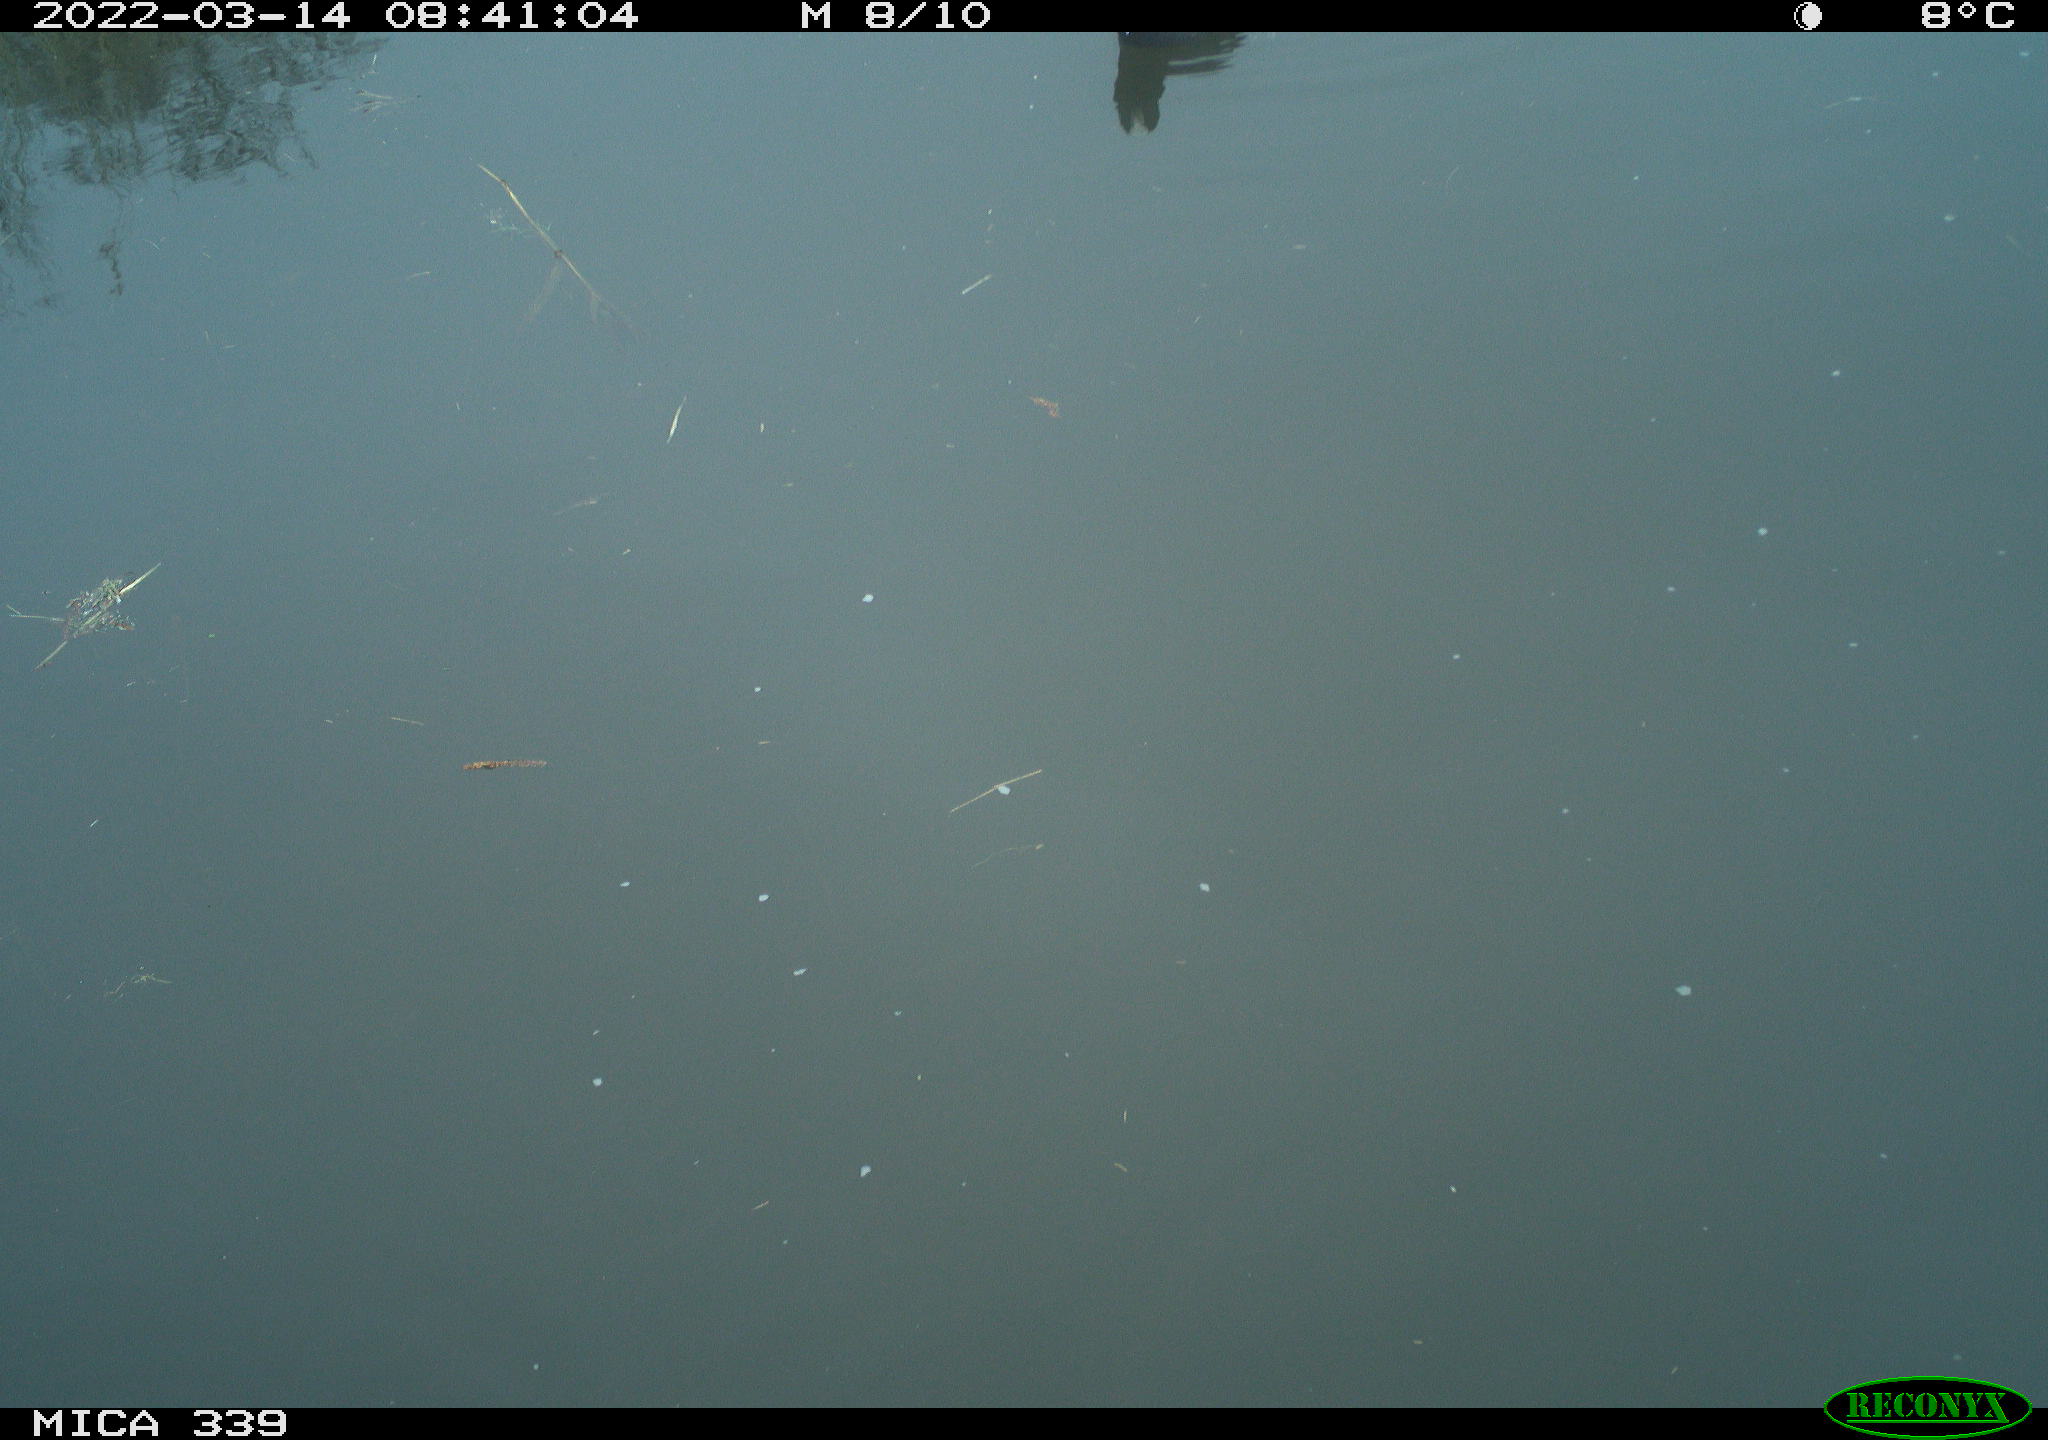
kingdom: Animalia
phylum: Chordata
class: Aves
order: Gruiformes
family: Rallidae
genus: Fulica
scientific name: Fulica atra
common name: Eurasian coot
